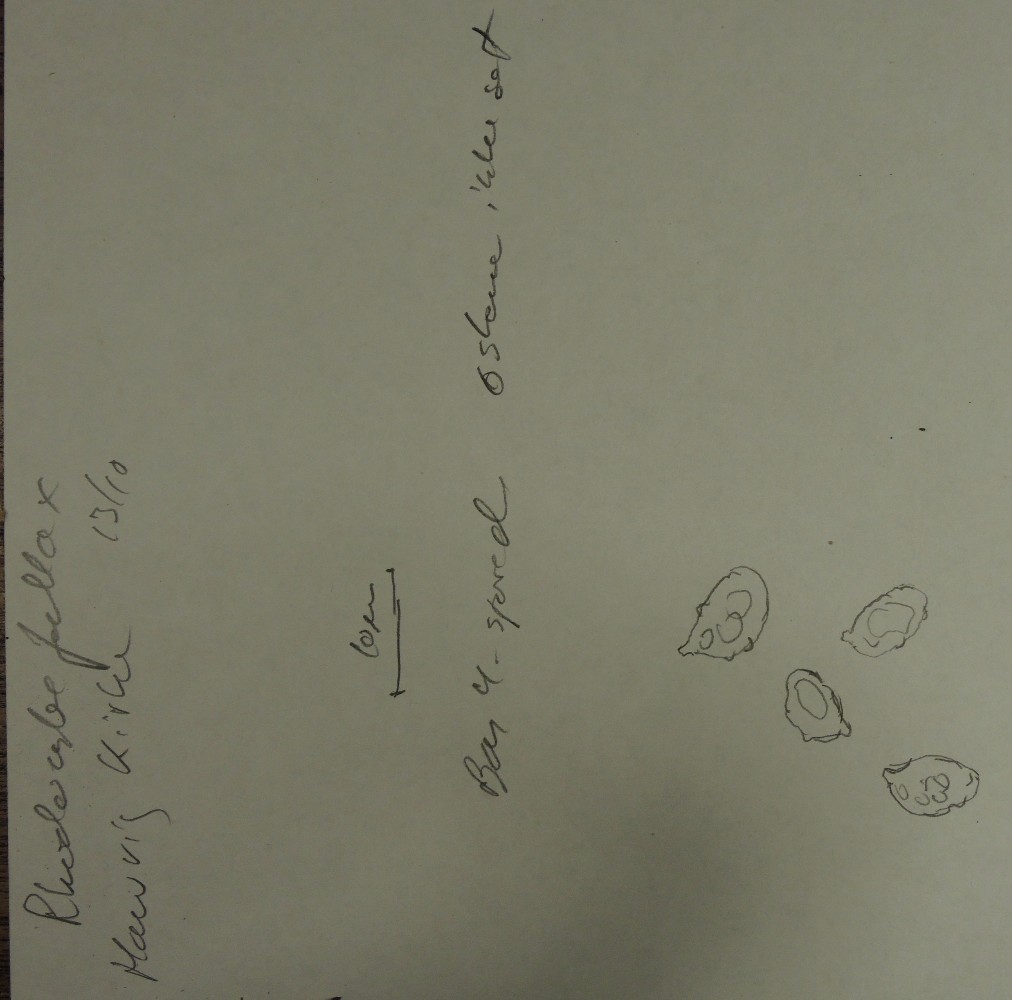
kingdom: Fungi
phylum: Basidiomycota
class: Agaricomycetes
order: Agaricales
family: Tricholomataceae
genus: Lulesia
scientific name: Lulesia
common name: hvid troldhat
